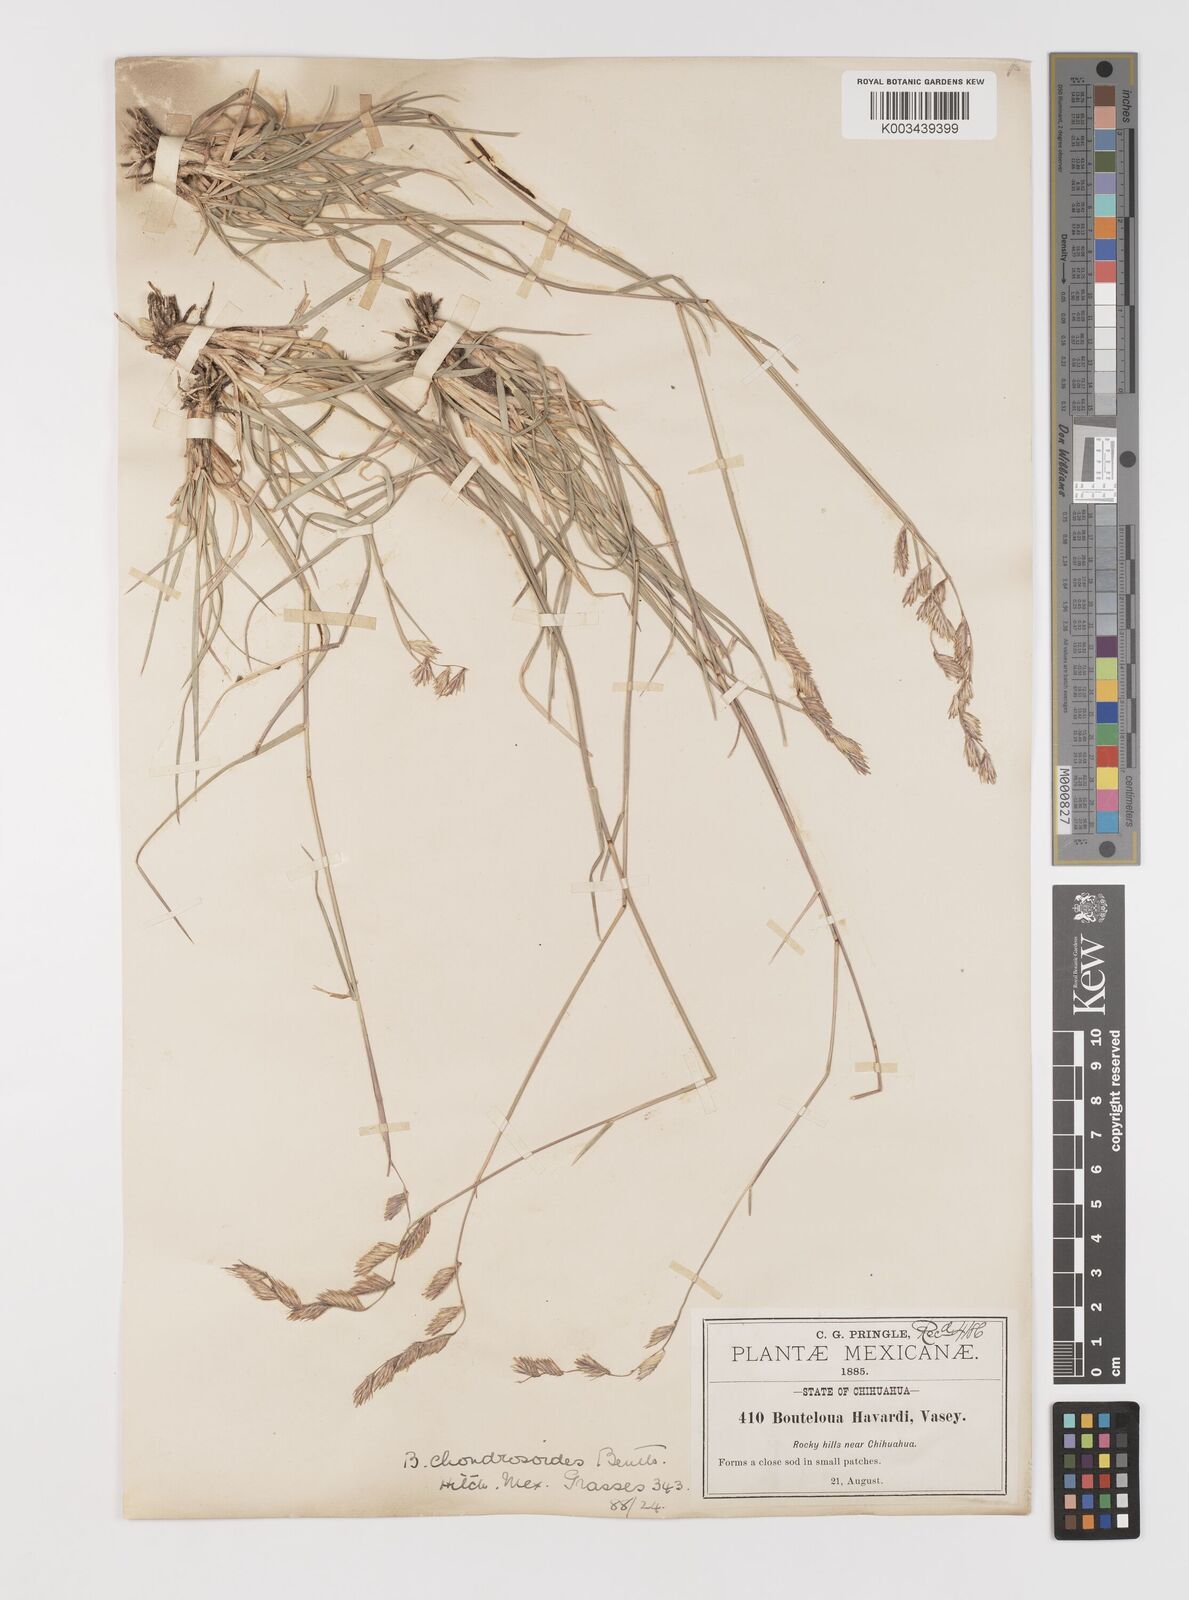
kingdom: Plantae
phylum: Tracheophyta
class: Liliopsida
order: Poales
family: Poaceae
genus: Bouteloua
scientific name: Bouteloua chondrosioides
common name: Sprucetop grama
